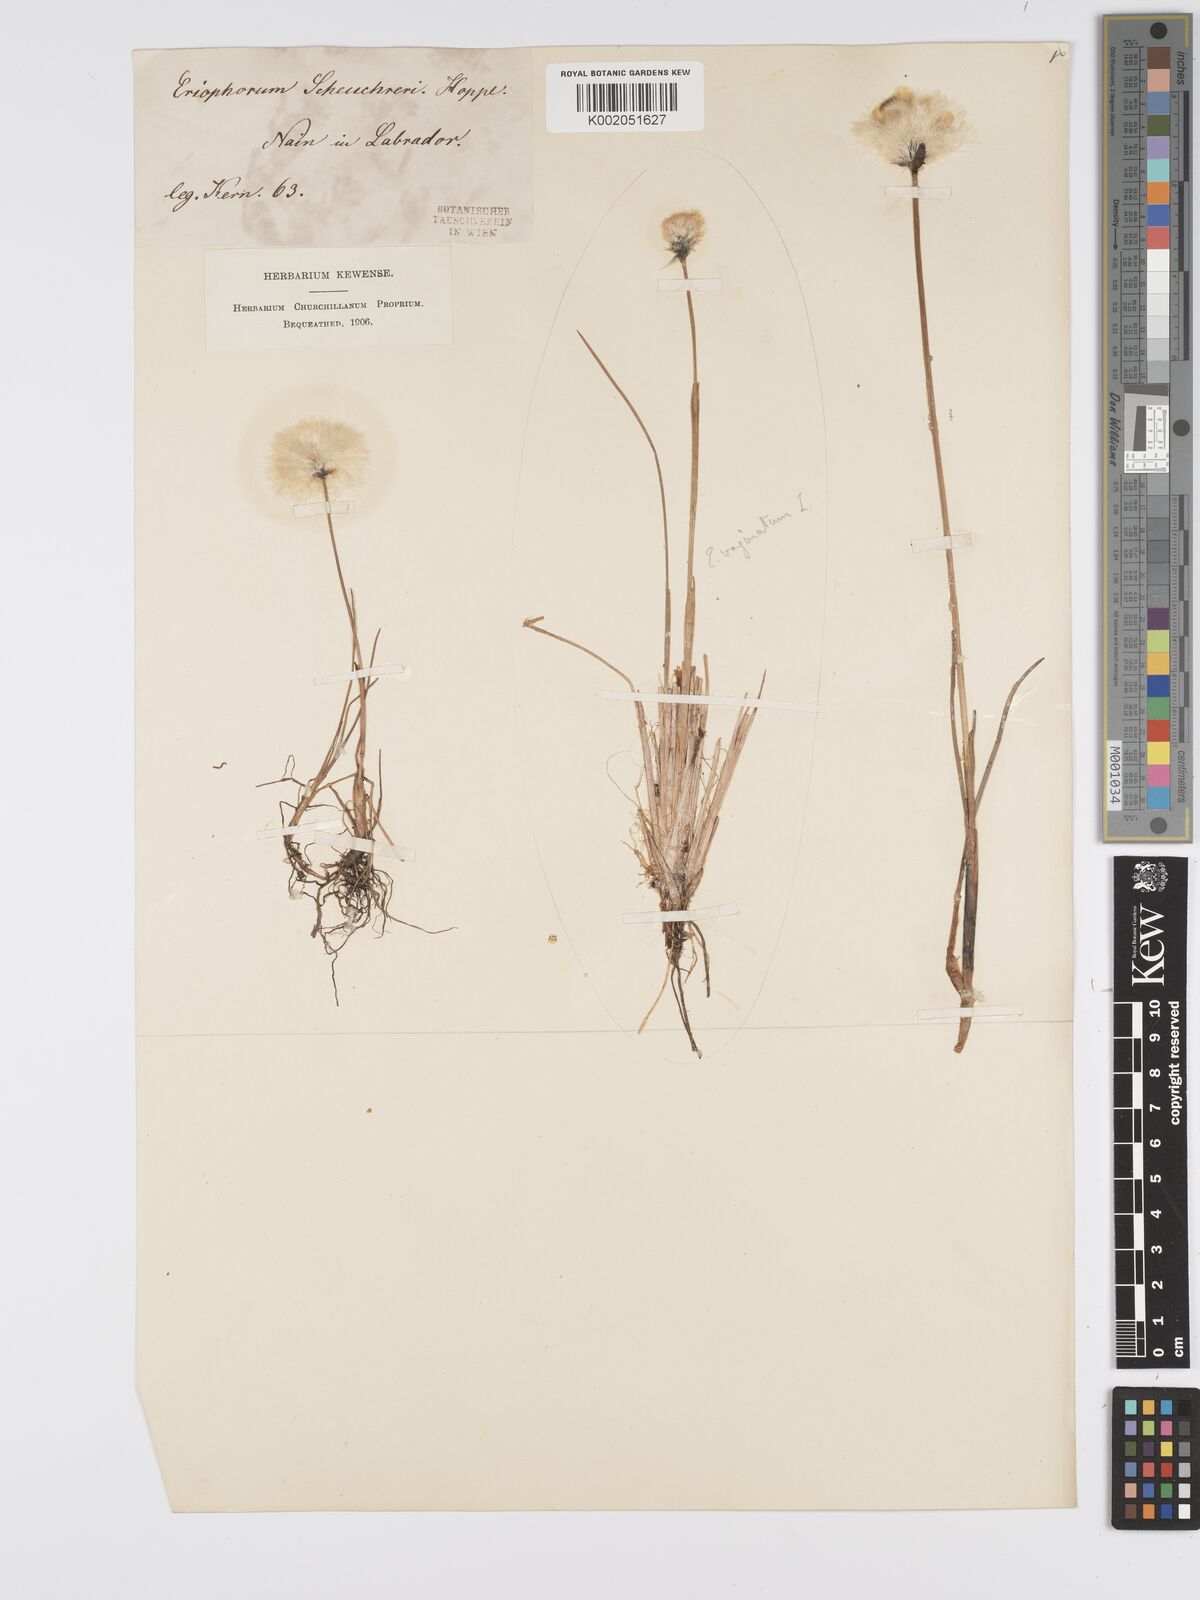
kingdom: Plantae
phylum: Tracheophyta
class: Liliopsida
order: Poales
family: Cyperaceae
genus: Eriophorum
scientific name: Eriophorum scheuchzeri
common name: Scheuchzer's cottongrass
